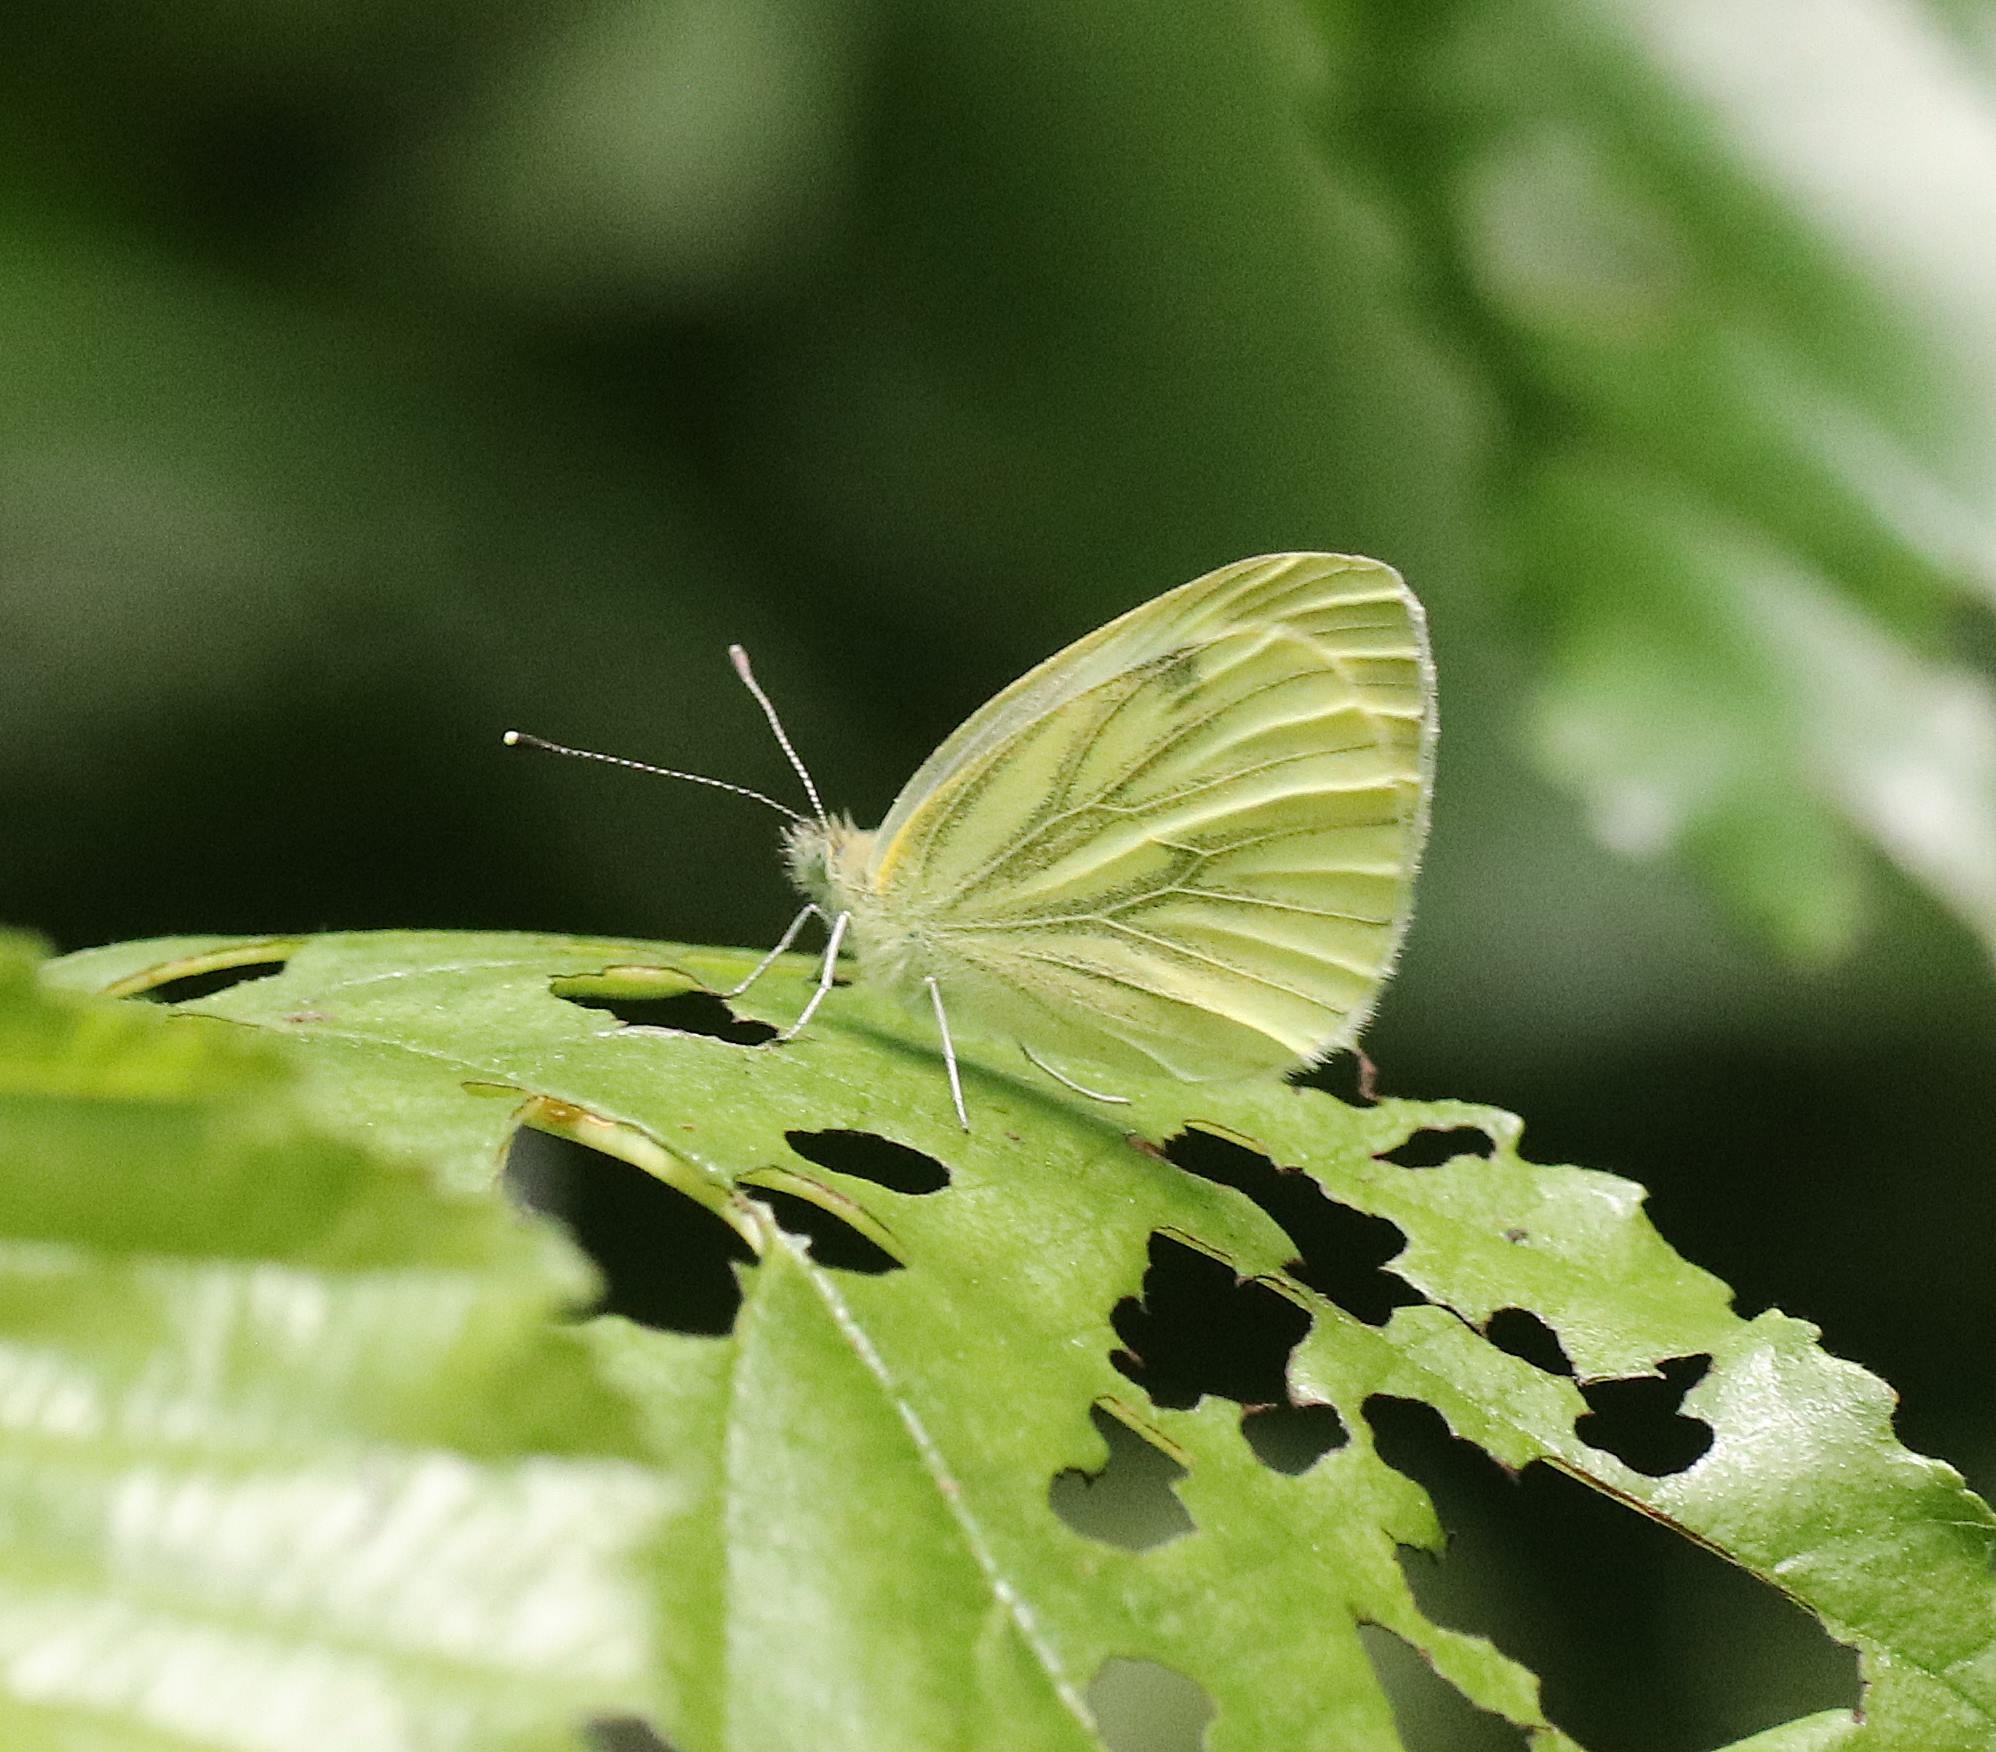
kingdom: Animalia
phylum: Arthropoda
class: Insecta
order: Lepidoptera
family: Pieridae
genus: Pieris
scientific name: Pieris napi
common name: Grønåret kålsommerfugl
